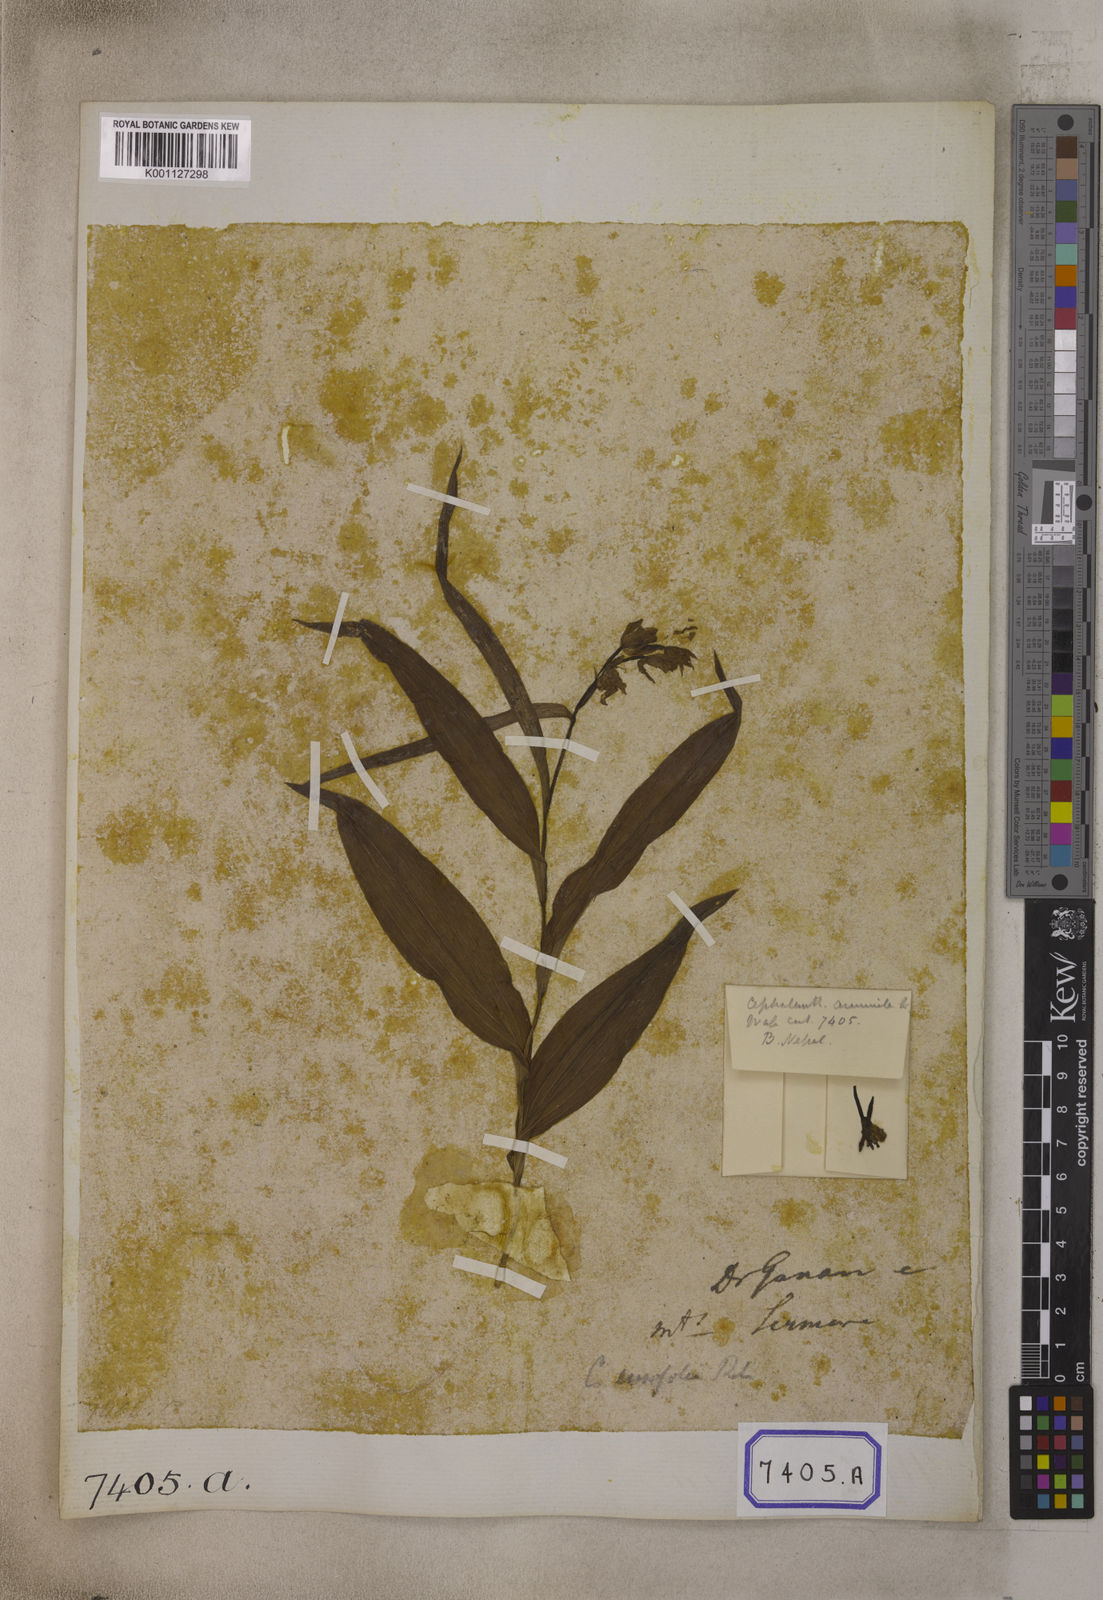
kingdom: Plantae
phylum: Tracheophyta
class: Liliopsida
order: Asparagales
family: Orchidaceae
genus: Cephalanthera
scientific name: Cephalanthera longifolia
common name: Narrow-leaved helleborine
